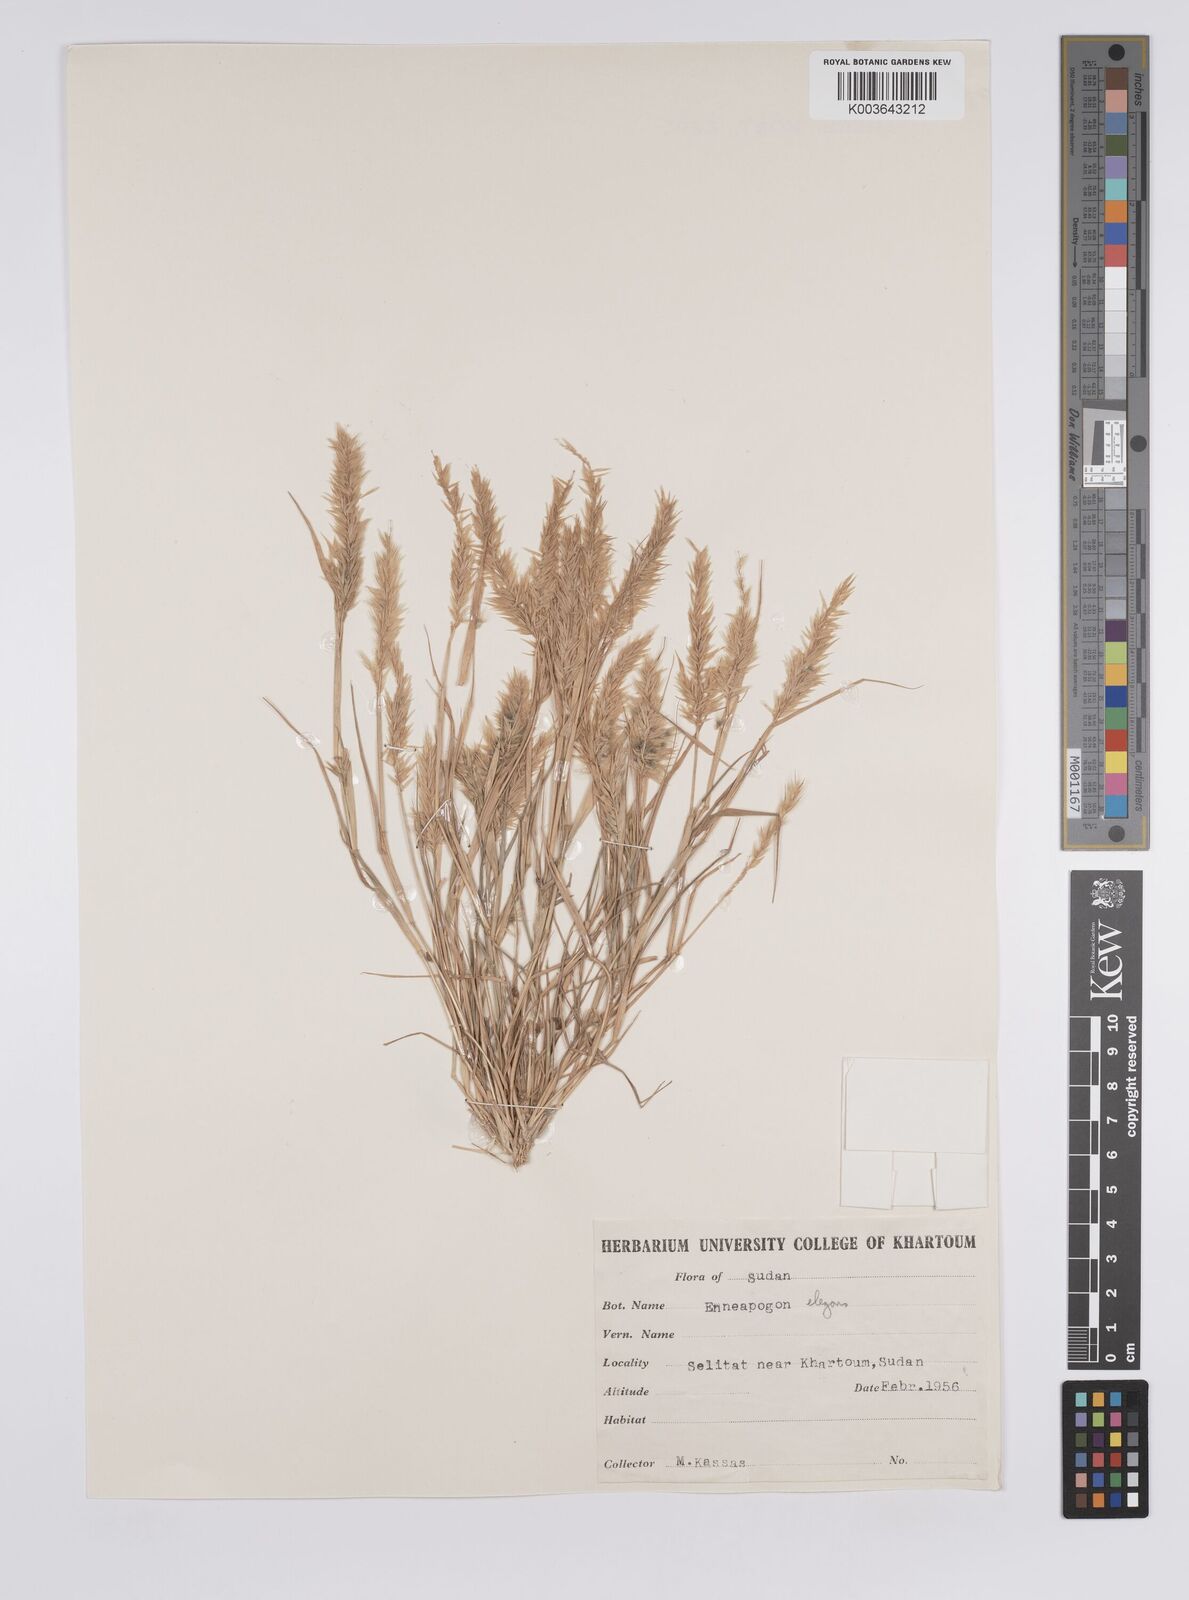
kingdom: Plantae
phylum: Tracheophyta
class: Liliopsida
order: Poales
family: Poaceae
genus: Enneapogon
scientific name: Enneapogon lophotrichus
